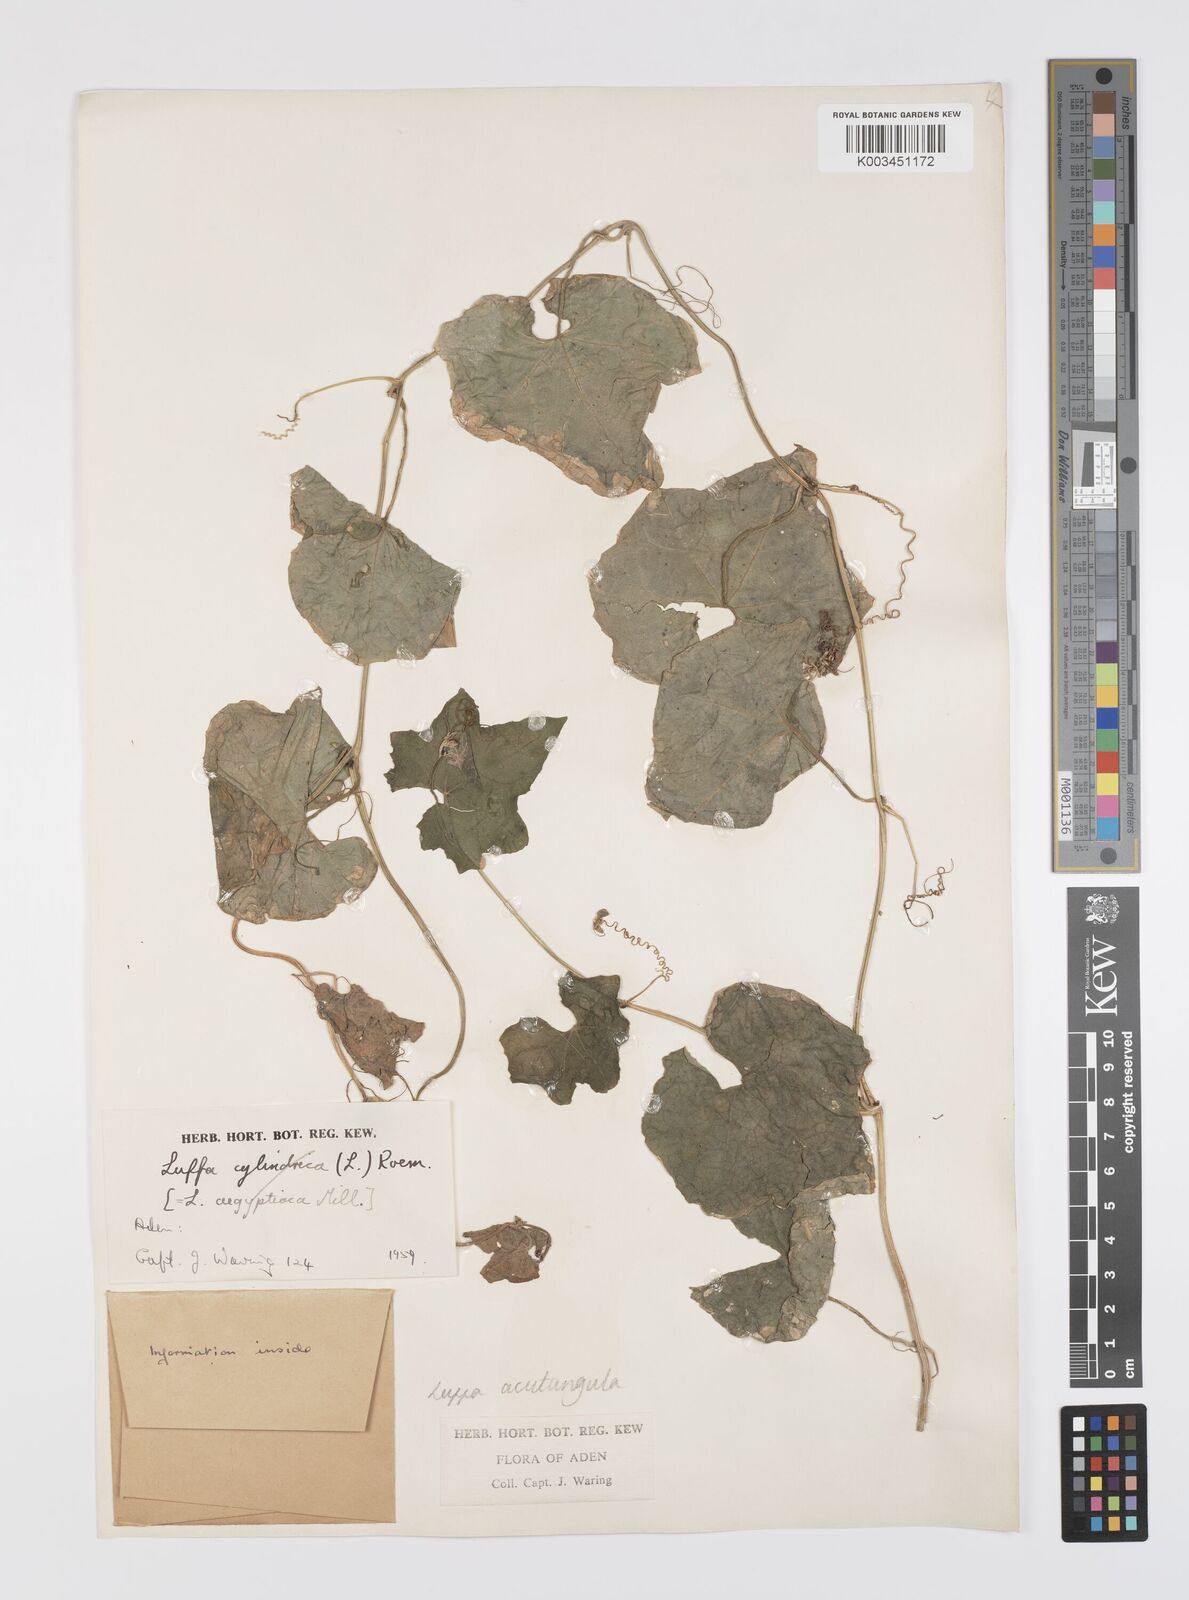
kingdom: Plantae
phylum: Tracheophyta
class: Magnoliopsida
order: Cucurbitales
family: Cucurbitaceae
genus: Luffa
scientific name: Luffa acutangula
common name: Sinkwa towelsponge
